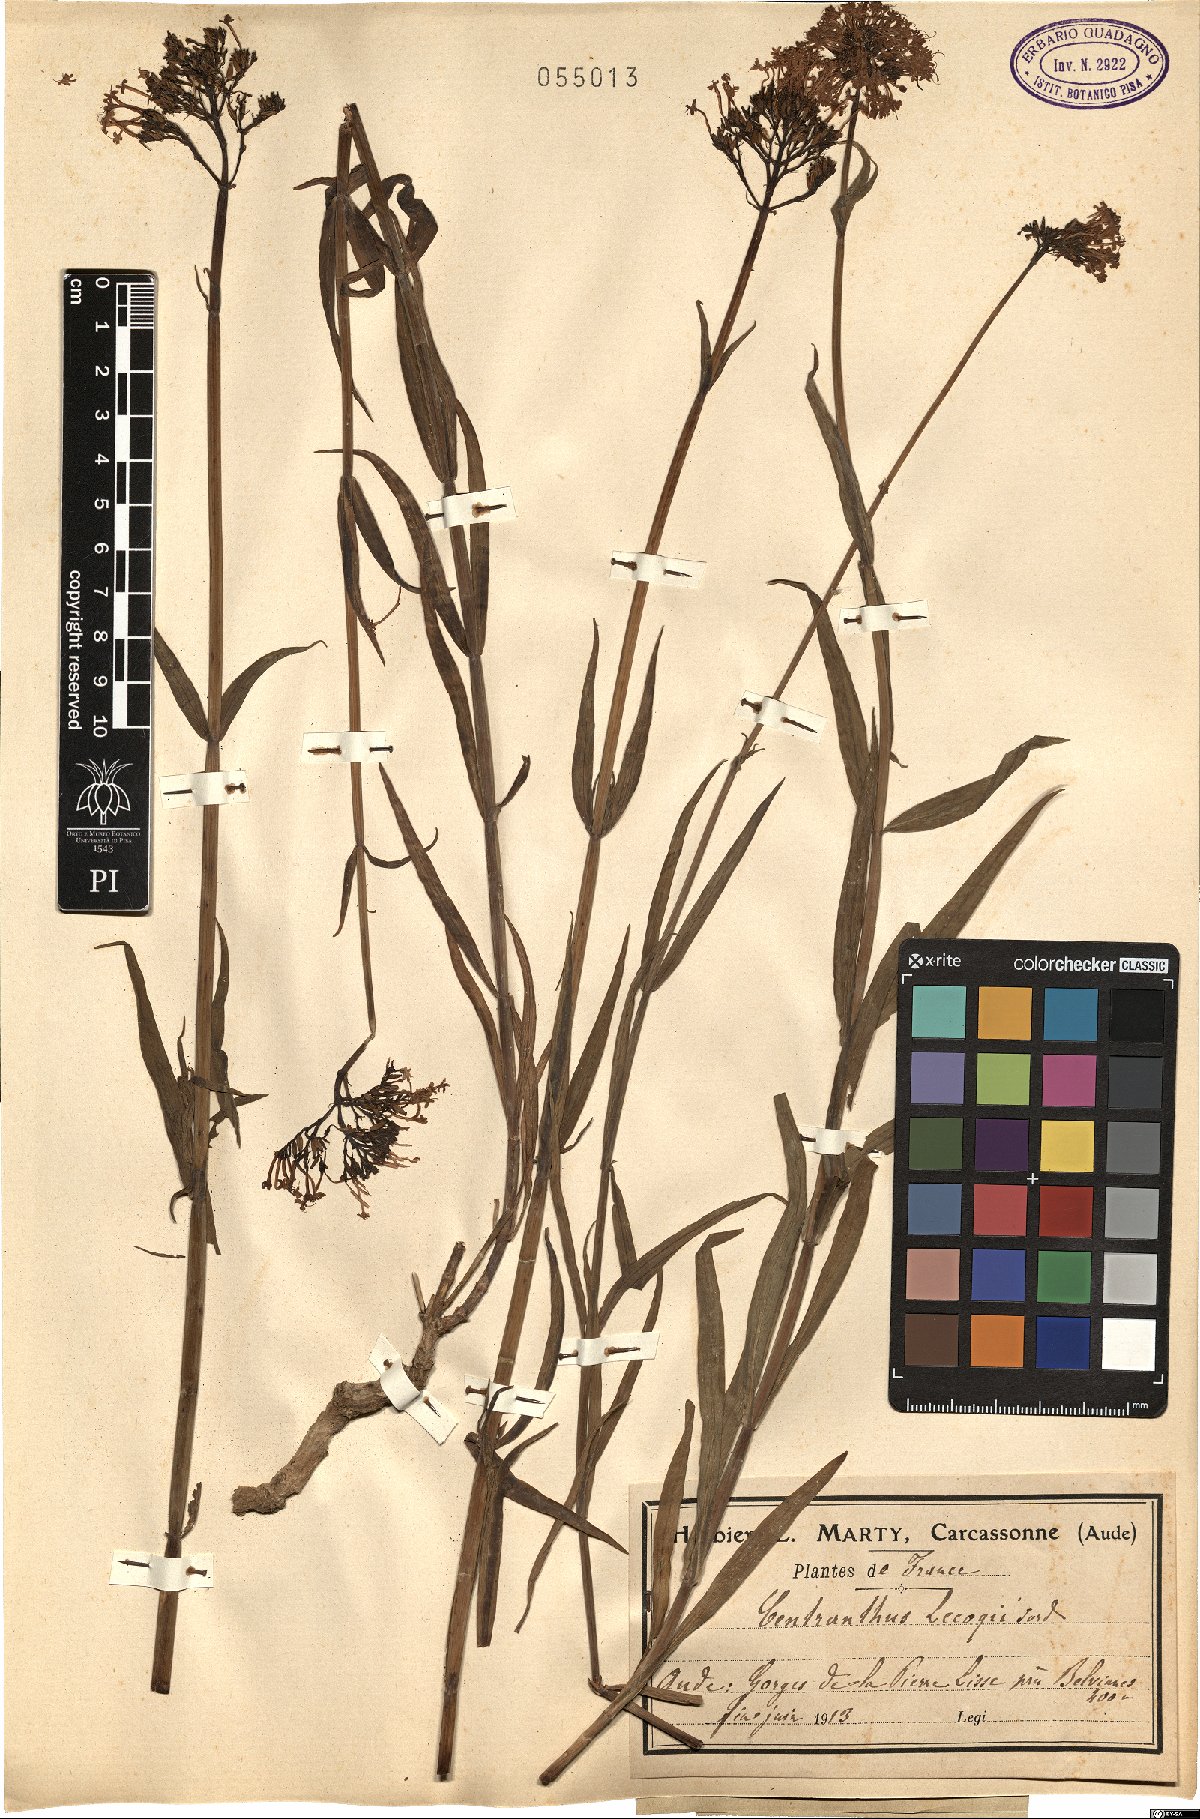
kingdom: Plantae
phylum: Tracheophyta
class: Magnoliopsida
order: Dipsacales
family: Caprifoliaceae
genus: Centranthus
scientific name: Centranthus lecoqii
